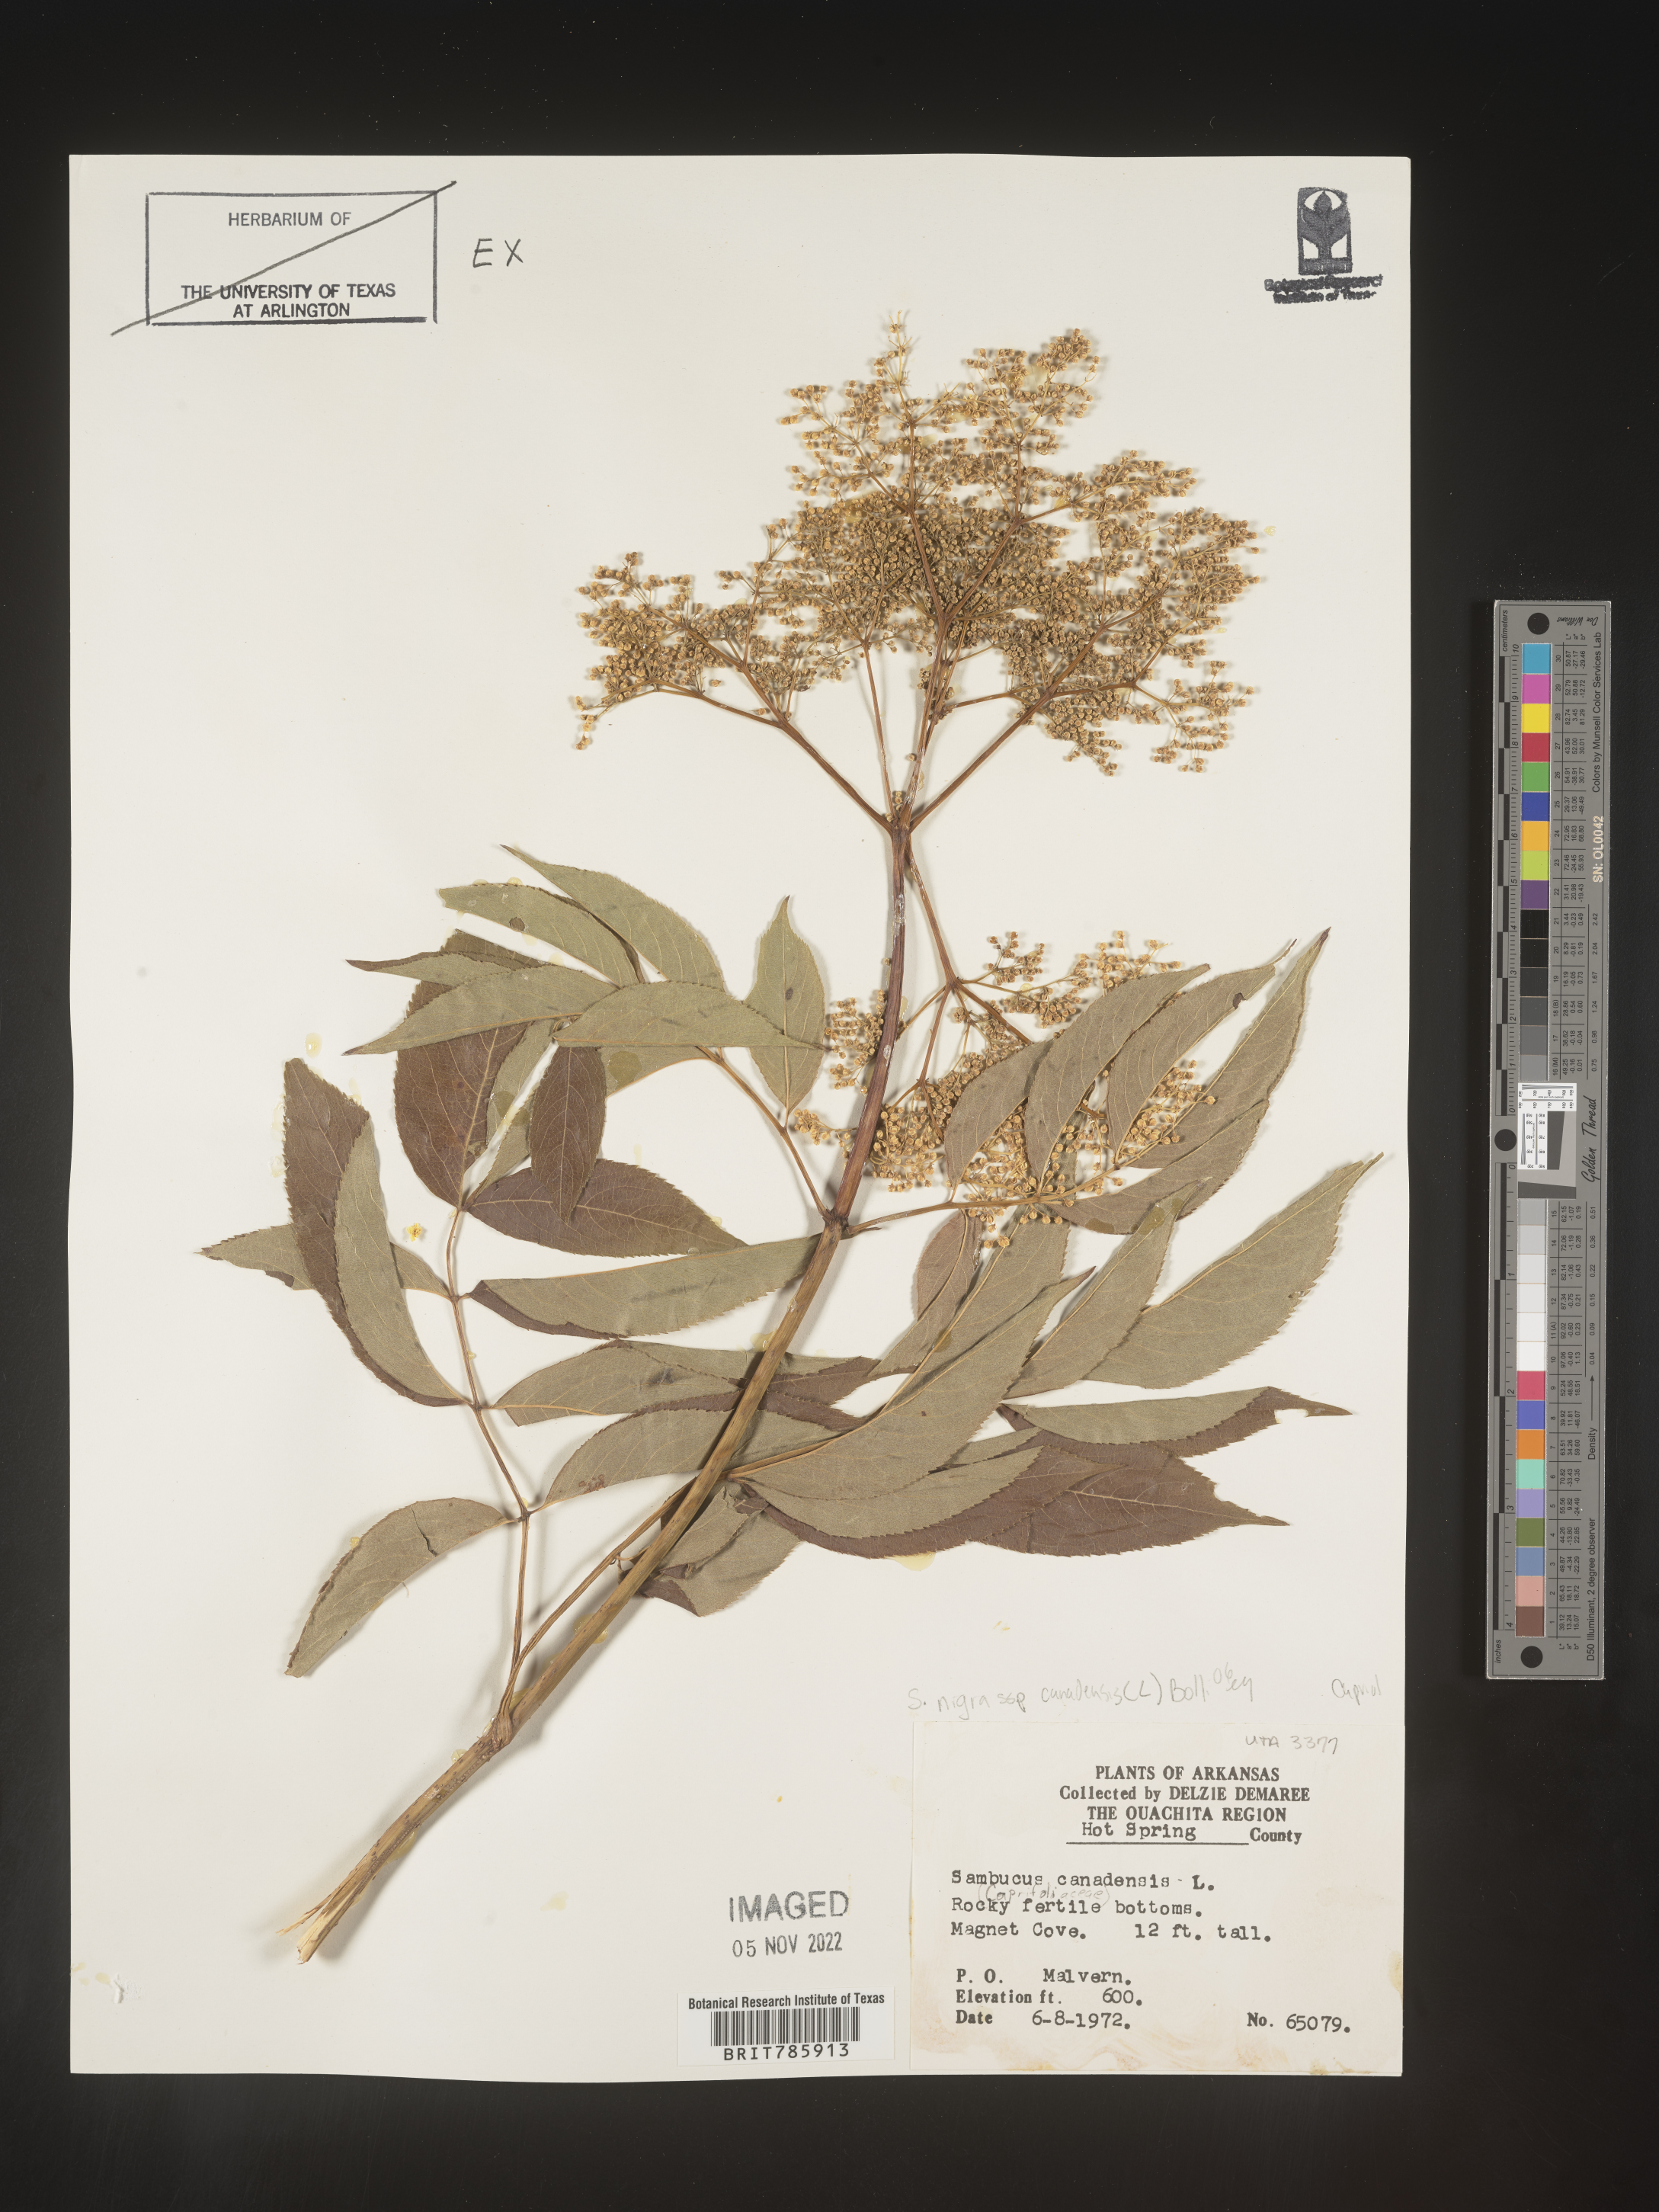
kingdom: Plantae
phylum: Tracheophyta
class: Magnoliopsida
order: Dipsacales
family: Viburnaceae
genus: Sambucus
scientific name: Sambucus nigra
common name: Elder
